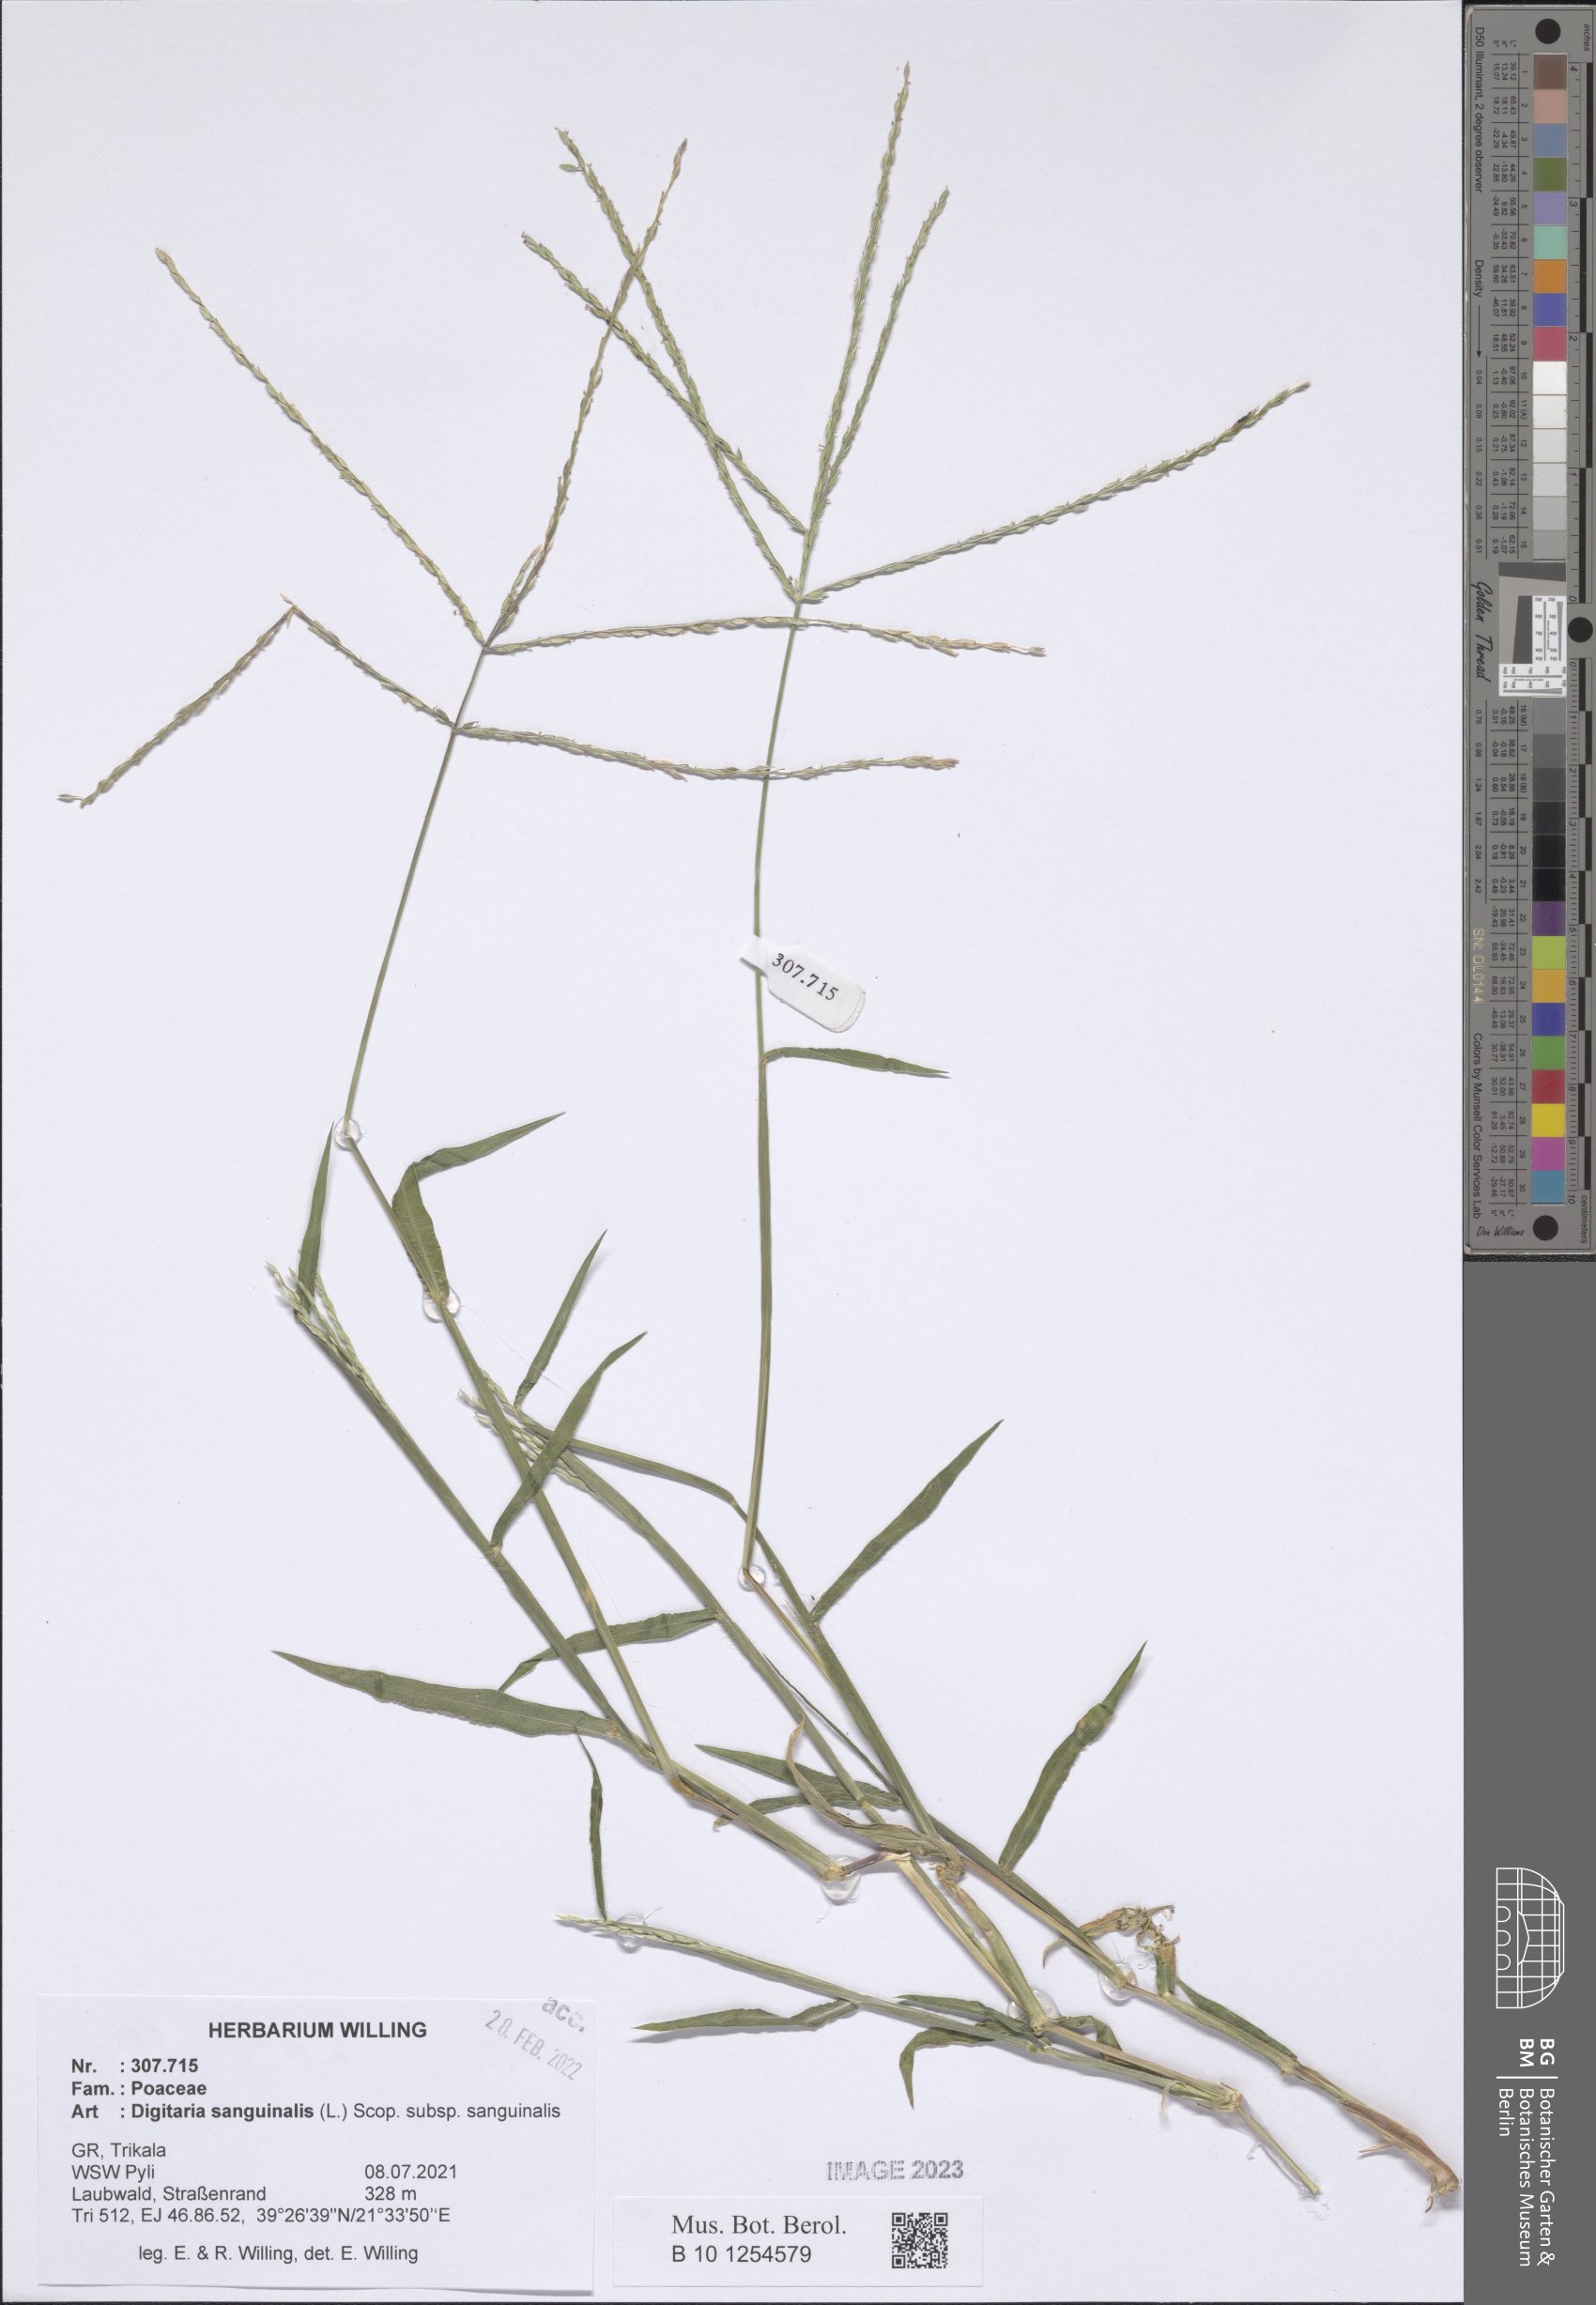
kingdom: Plantae
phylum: Tracheophyta
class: Liliopsida
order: Poales
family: Poaceae
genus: Digitaria
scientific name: Digitaria sanguinalis
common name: Hairy crabgrass
